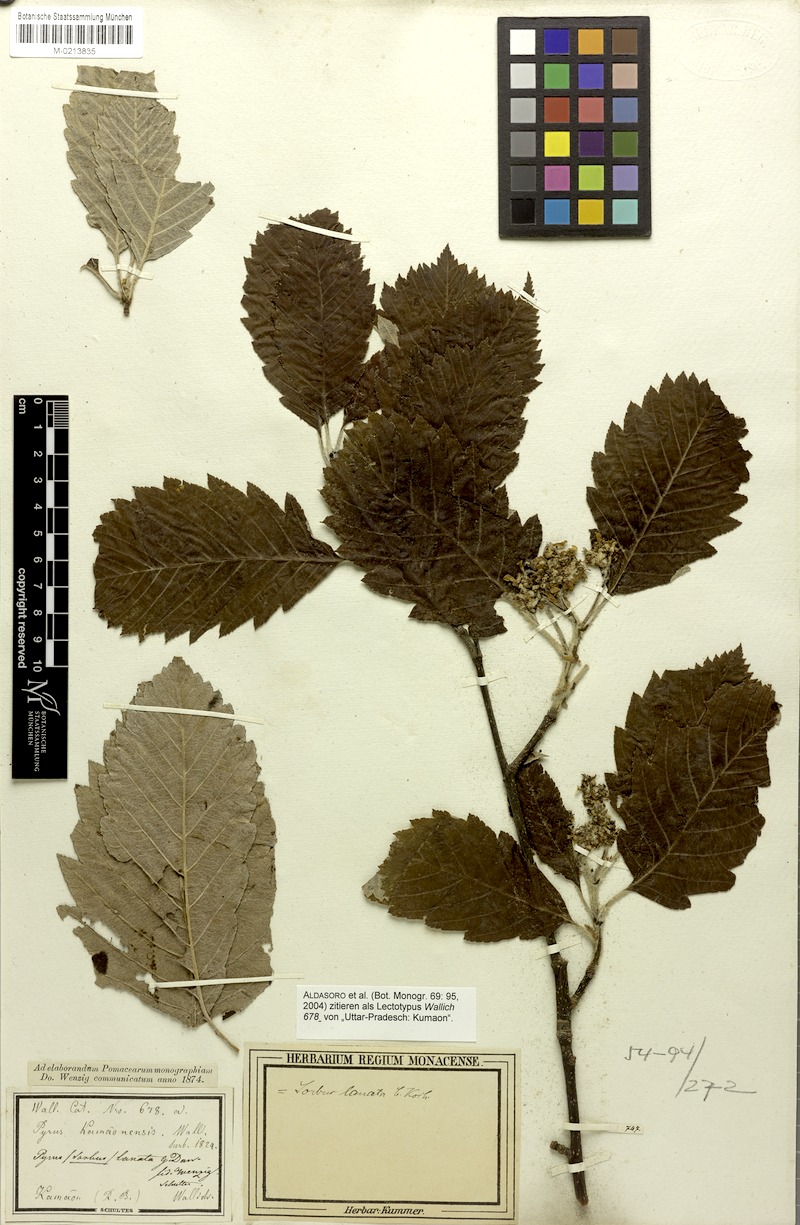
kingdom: Plantae
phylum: Tracheophyta
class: Magnoliopsida
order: Rosales
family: Rosaceae
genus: Sorbus
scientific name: Sorbus lanata
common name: Hairy rowan
